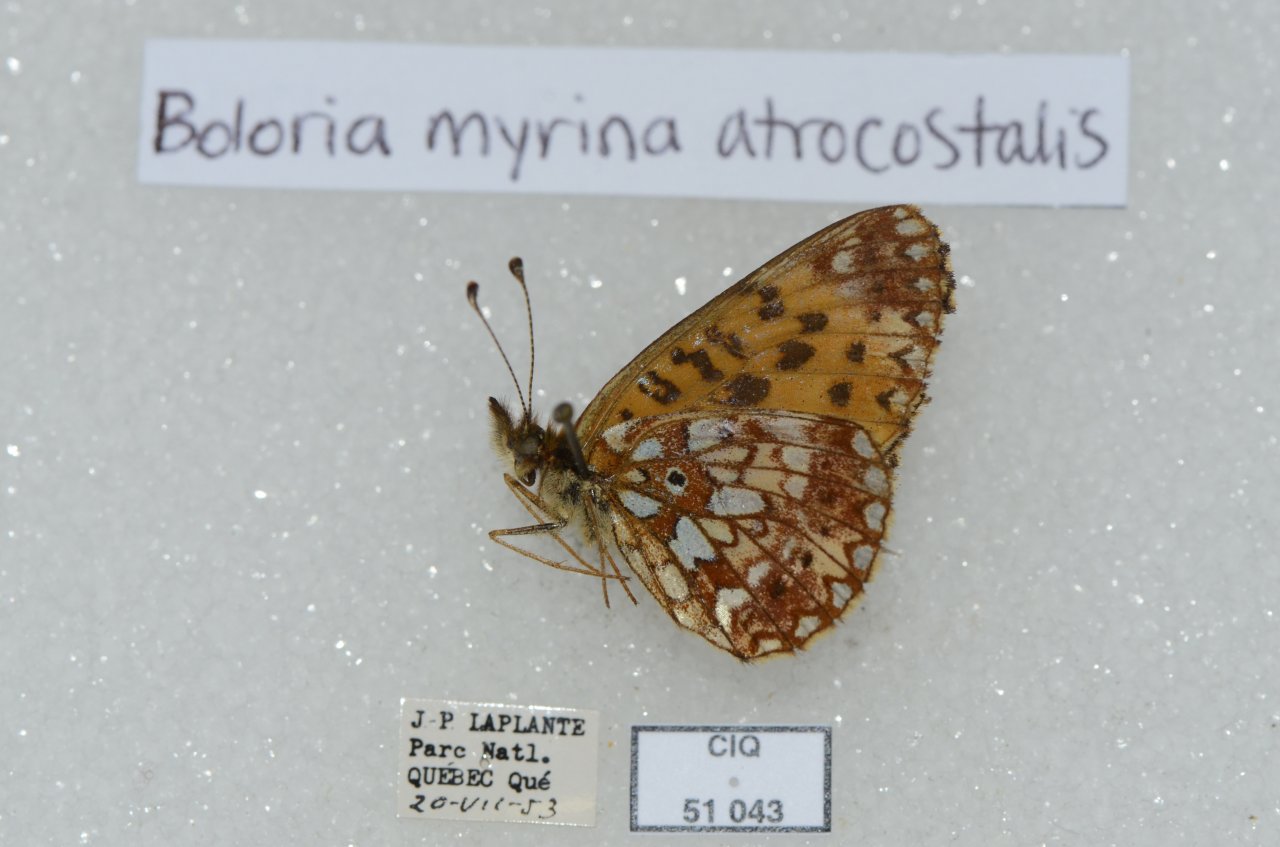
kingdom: Animalia
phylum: Arthropoda
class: Insecta
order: Lepidoptera
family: Nymphalidae
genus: Boloria
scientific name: Boloria selene
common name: Silver-bordered Fritillary
